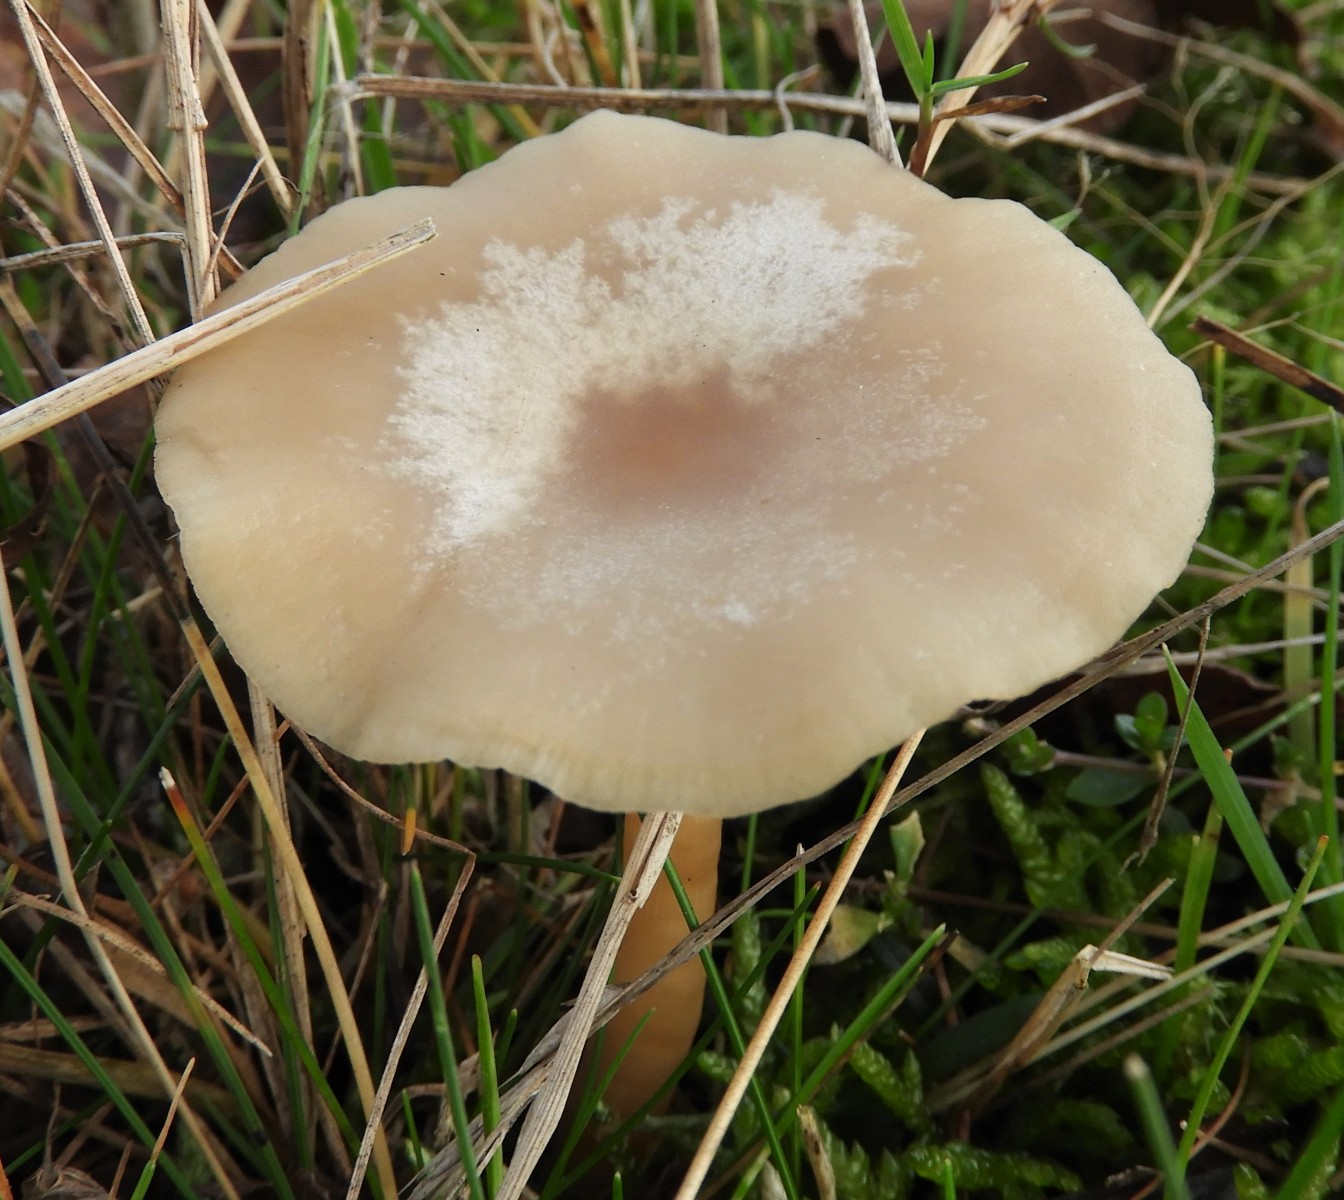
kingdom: Fungi
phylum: Basidiomycota
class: Agaricomycetes
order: Agaricales
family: Tricholomataceae
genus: Clitocybe
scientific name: Clitocybe fragrans
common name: vellugtende tragthat
